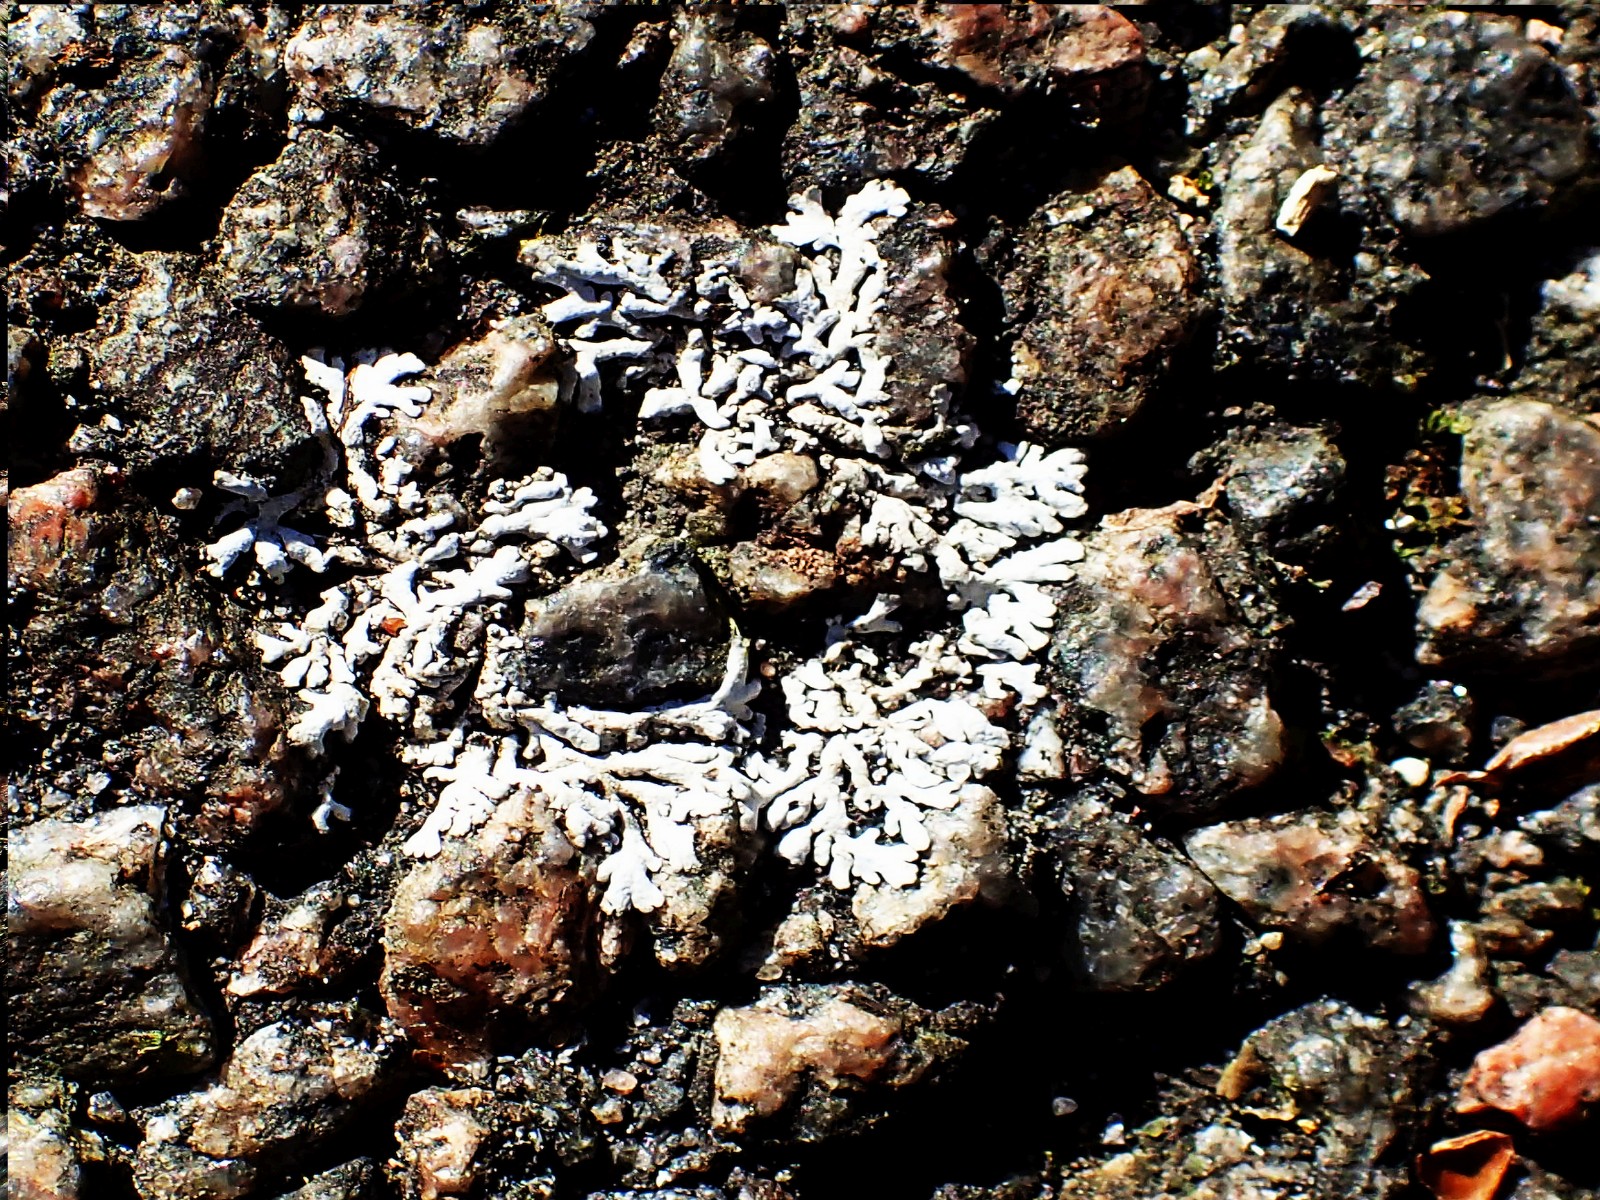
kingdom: Fungi
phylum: Ascomycota
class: Lecanoromycetes
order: Caliciales
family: Physciaceae
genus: Physcia
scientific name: Physcia dubia
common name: fuglestens-rosetlav
